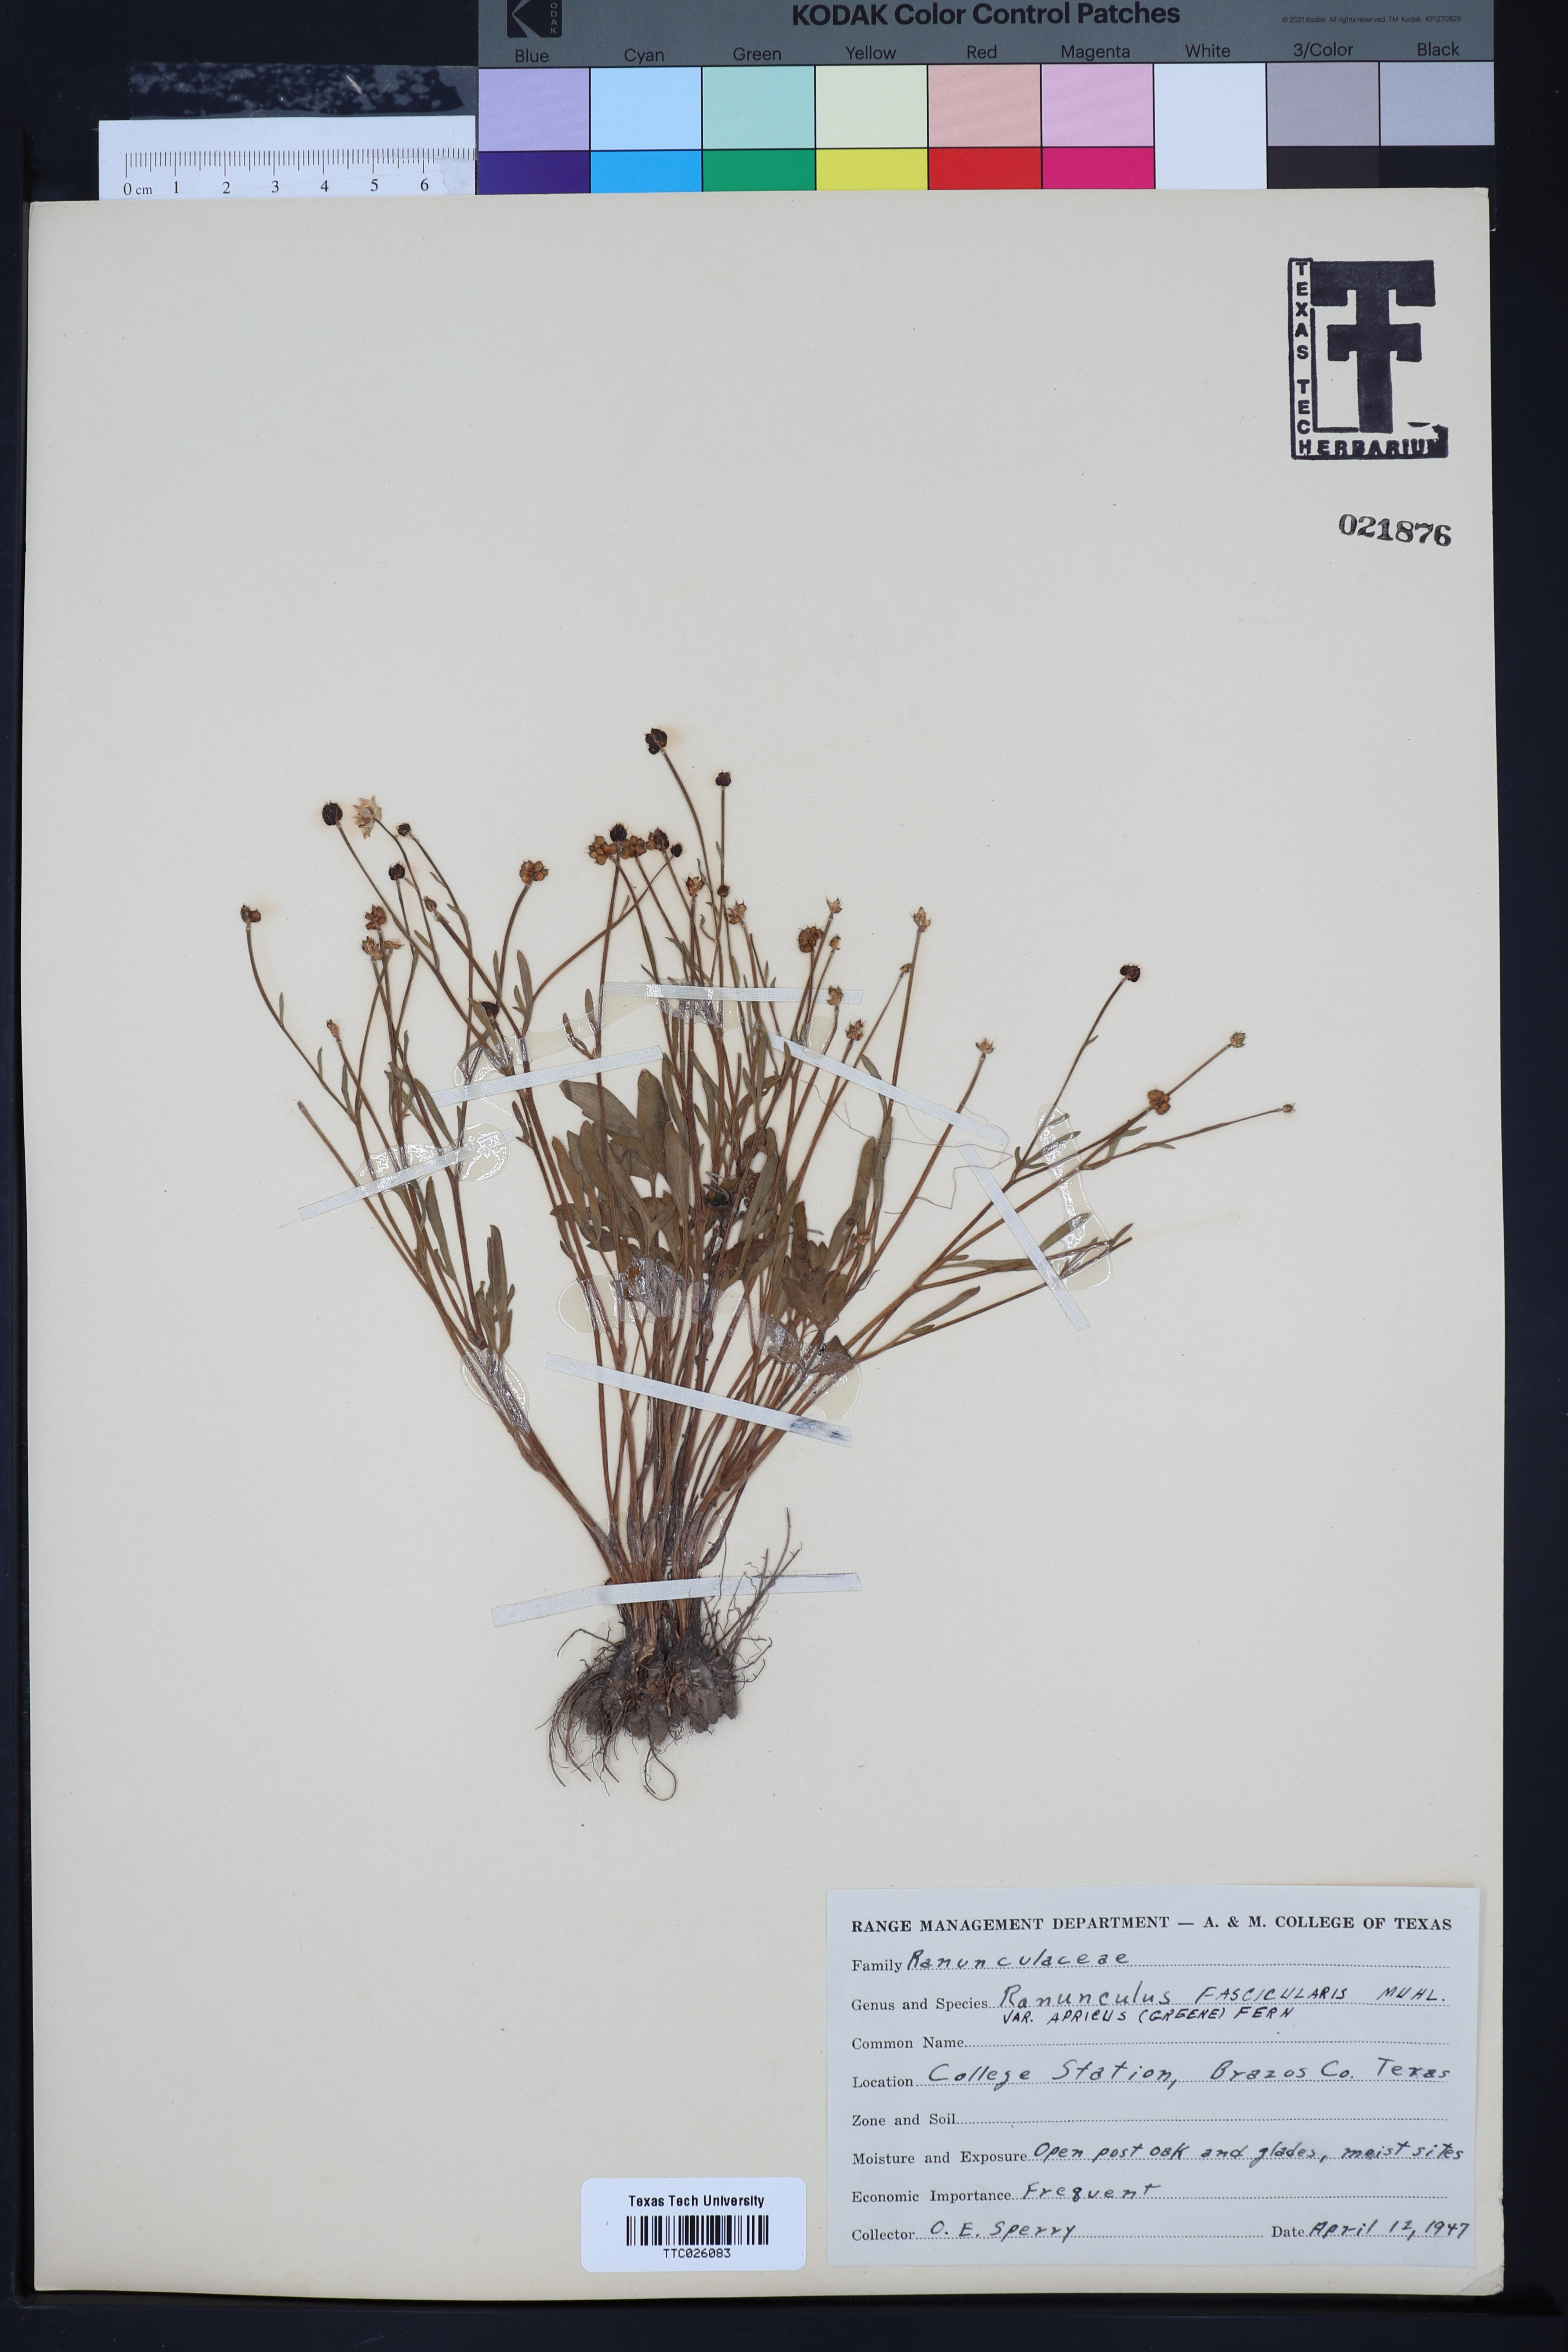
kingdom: Plantae
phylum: Tracheophyta
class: Magnoliopsida
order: Ranunculales
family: Ranunculaceae
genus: Ranunculus
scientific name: Ranunculus fascicularis
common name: Early buttercup
